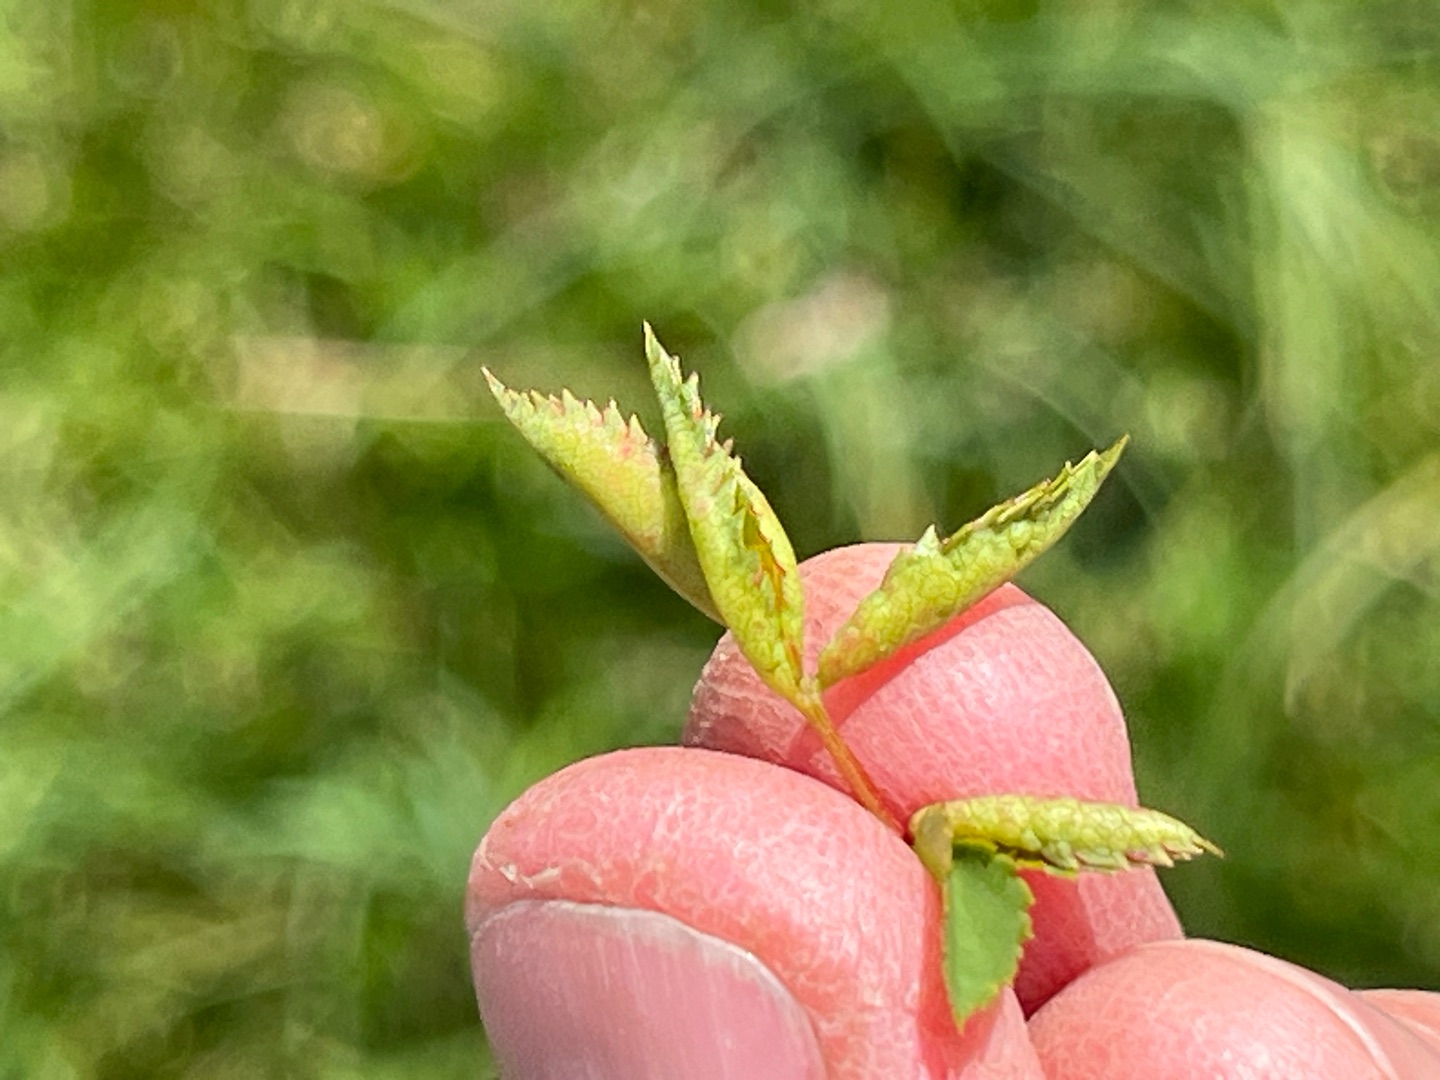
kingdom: Animalia
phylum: Arthropoda
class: Insecta
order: Diptera
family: Cecidomyiidae
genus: Wachtliella
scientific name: Wachtliella rosae
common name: Rosenbladgalmyg
